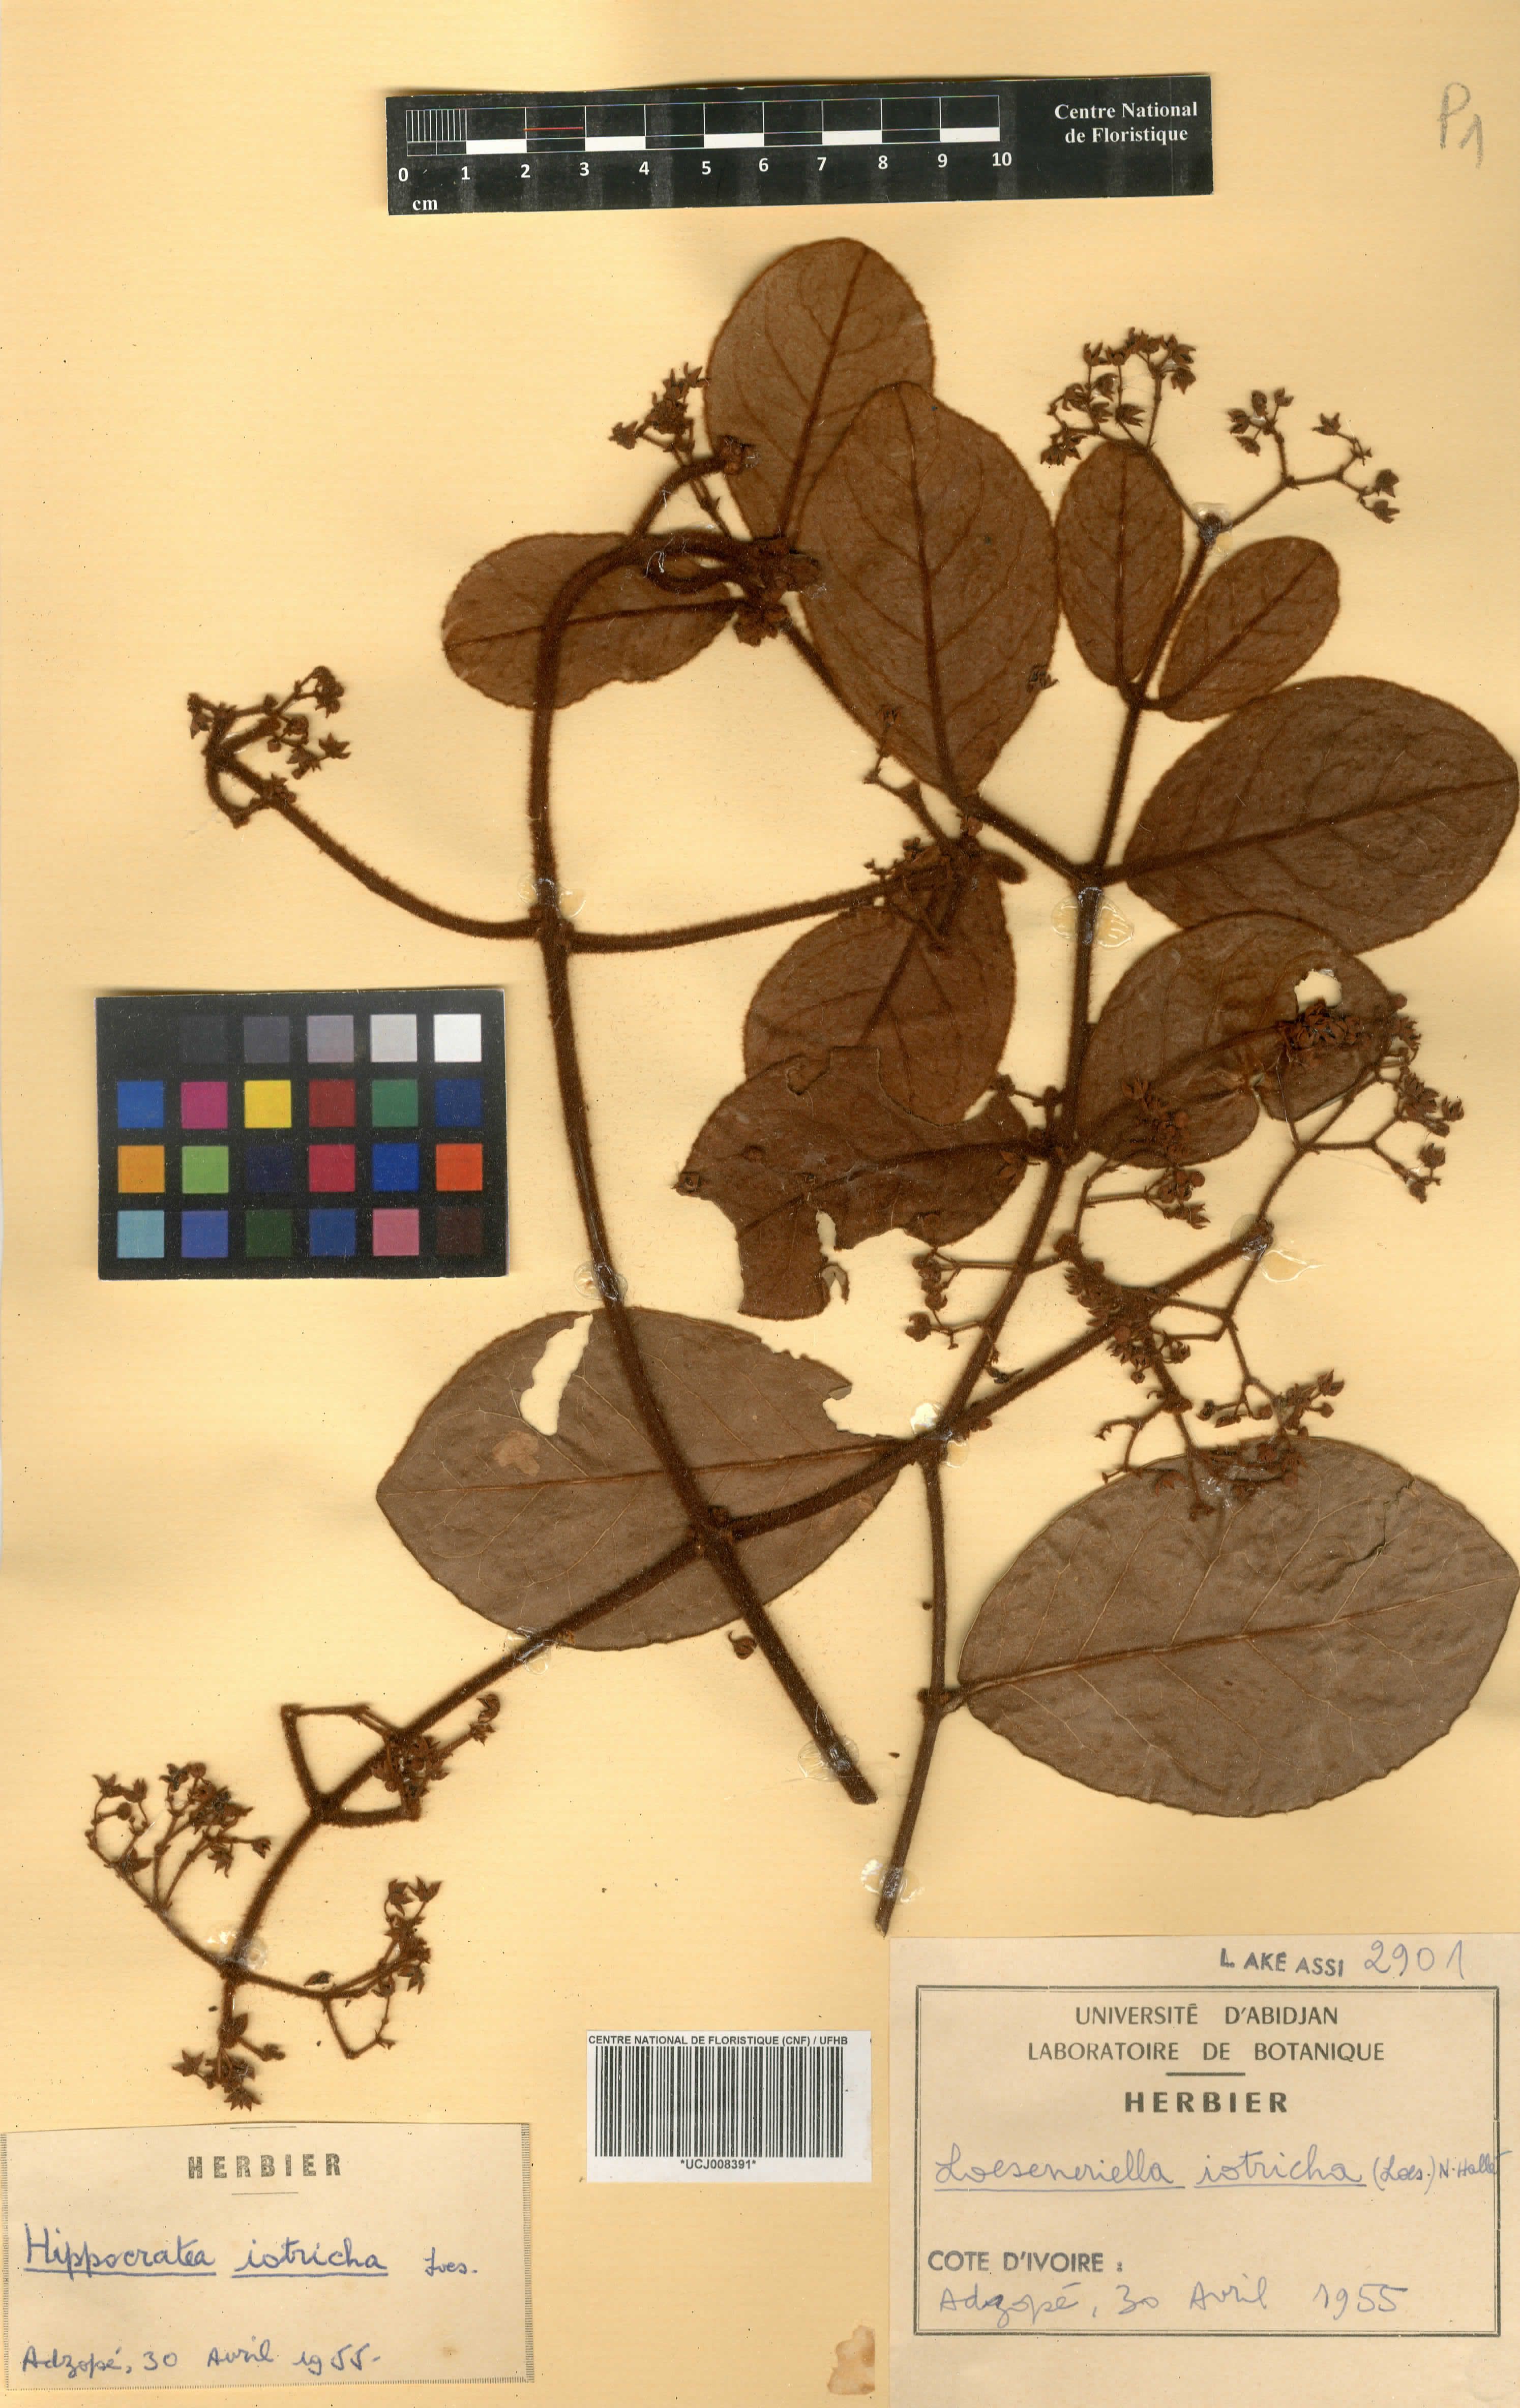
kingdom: Plantae
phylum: Tracheophyta
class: Magnoliopsida
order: Celastrales
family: Celastraceae
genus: Loeseneriella
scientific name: Loeseneriella iotricha
